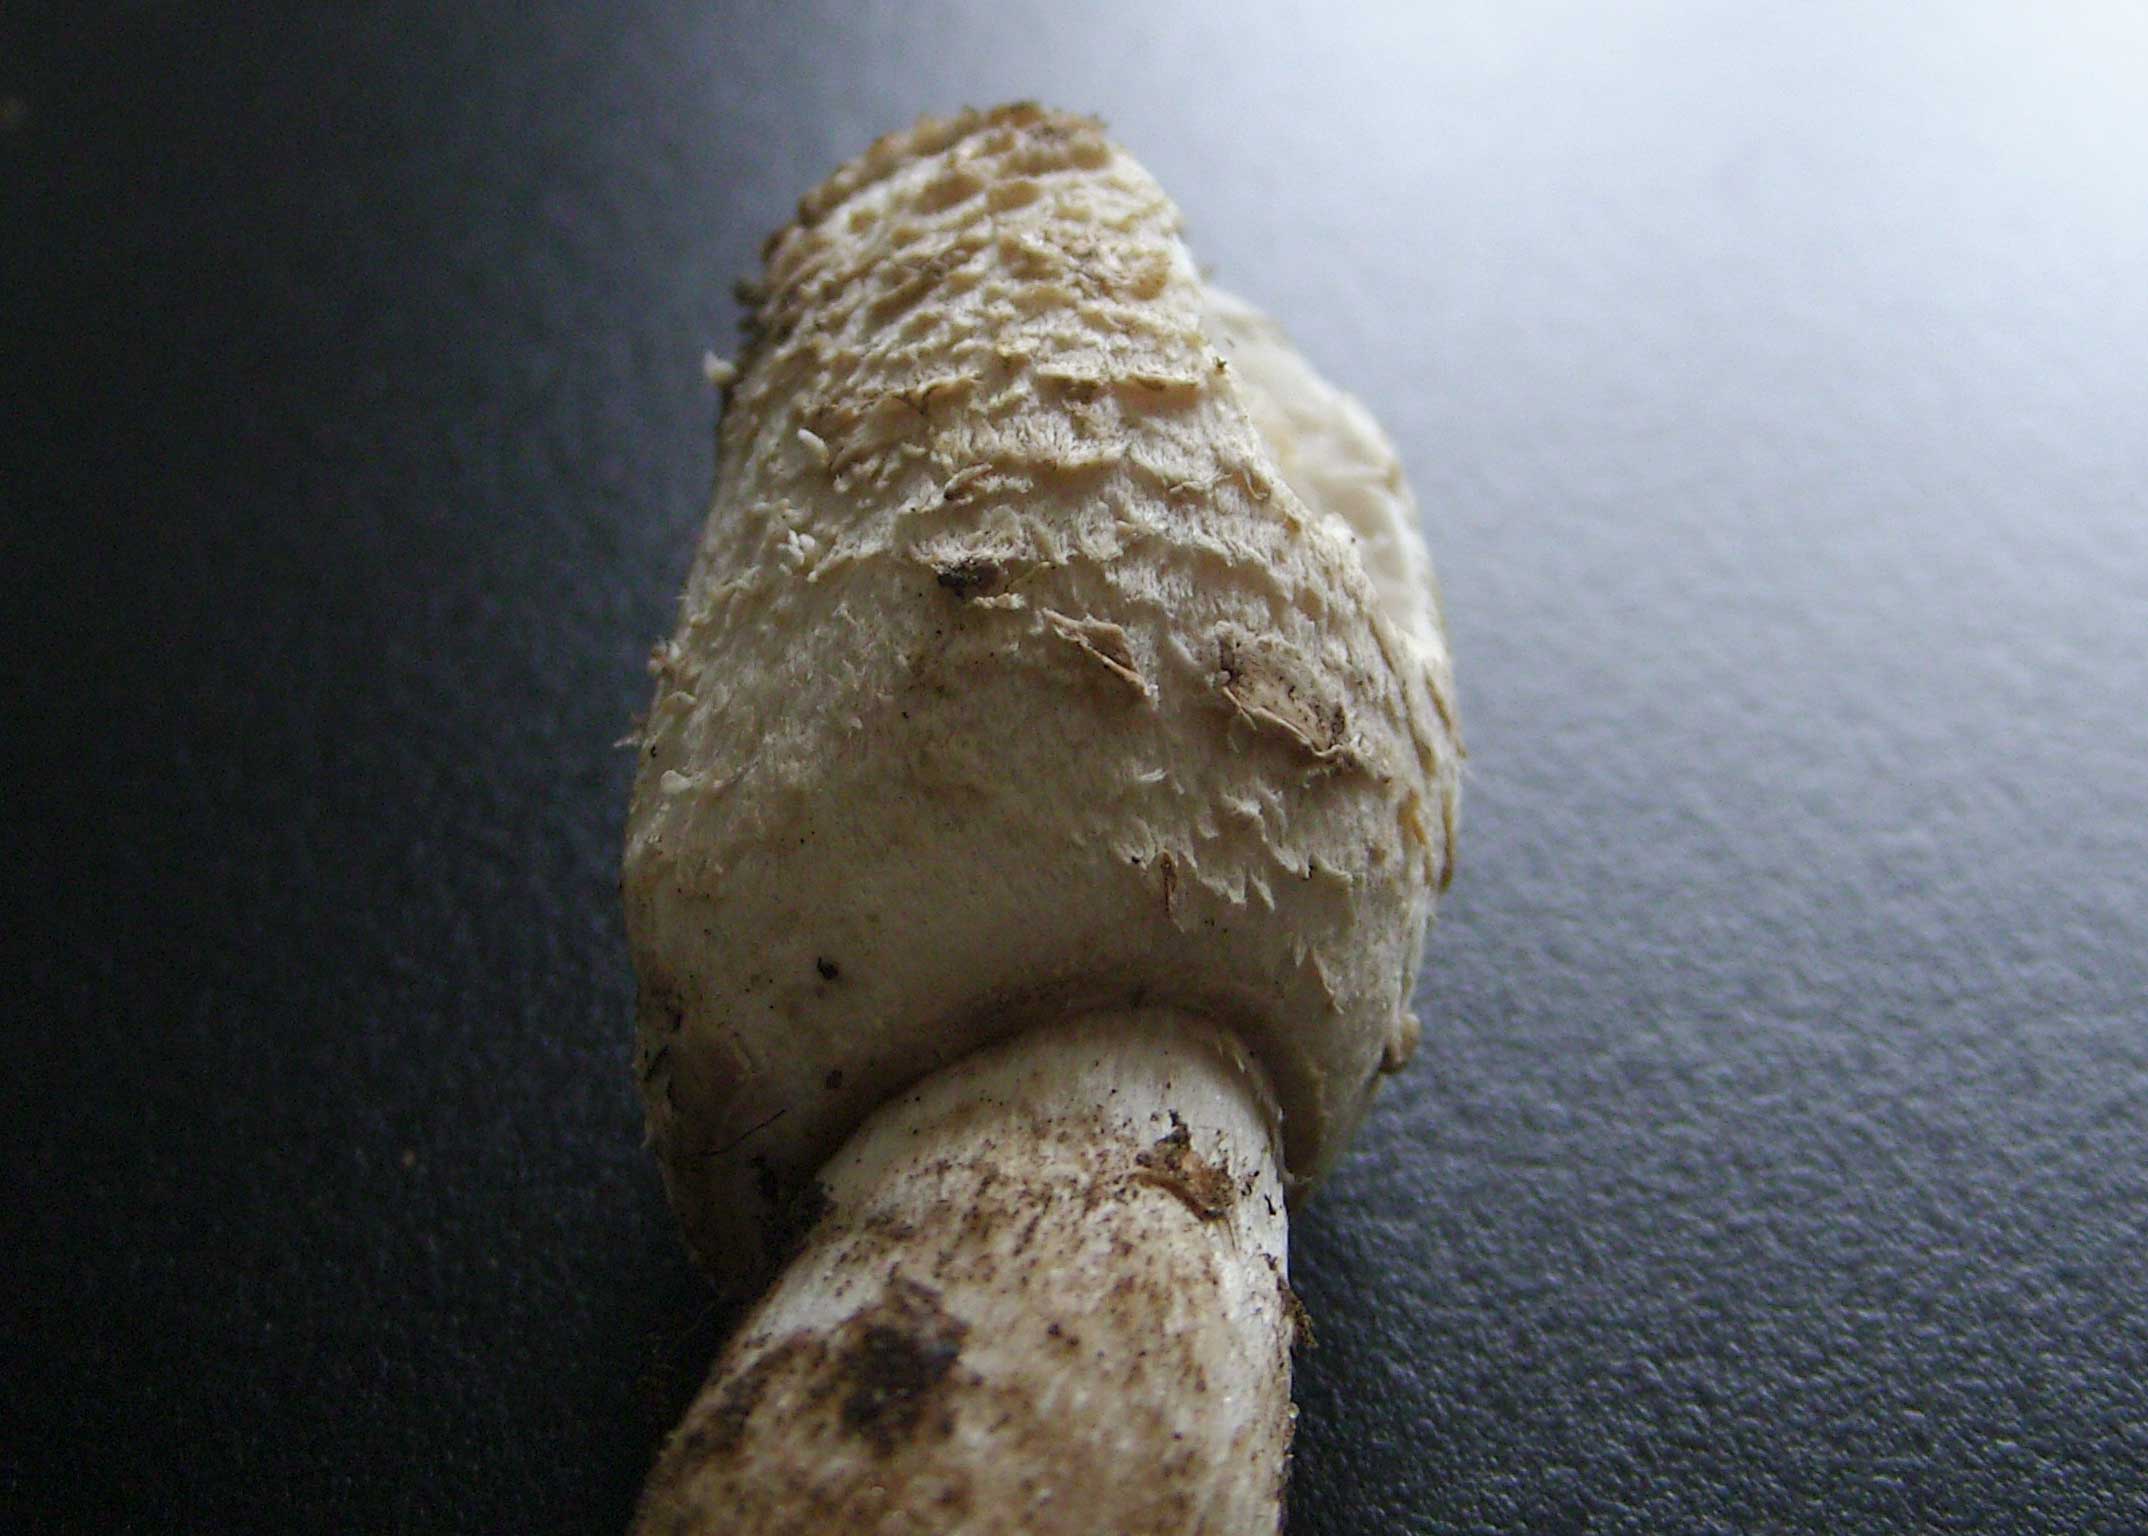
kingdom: Fungi
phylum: Basidiomycota
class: Agaricomycetes
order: Agaricales
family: Agaricaceae
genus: Coprinus
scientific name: Coprinus comatus
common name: stor parykhat
